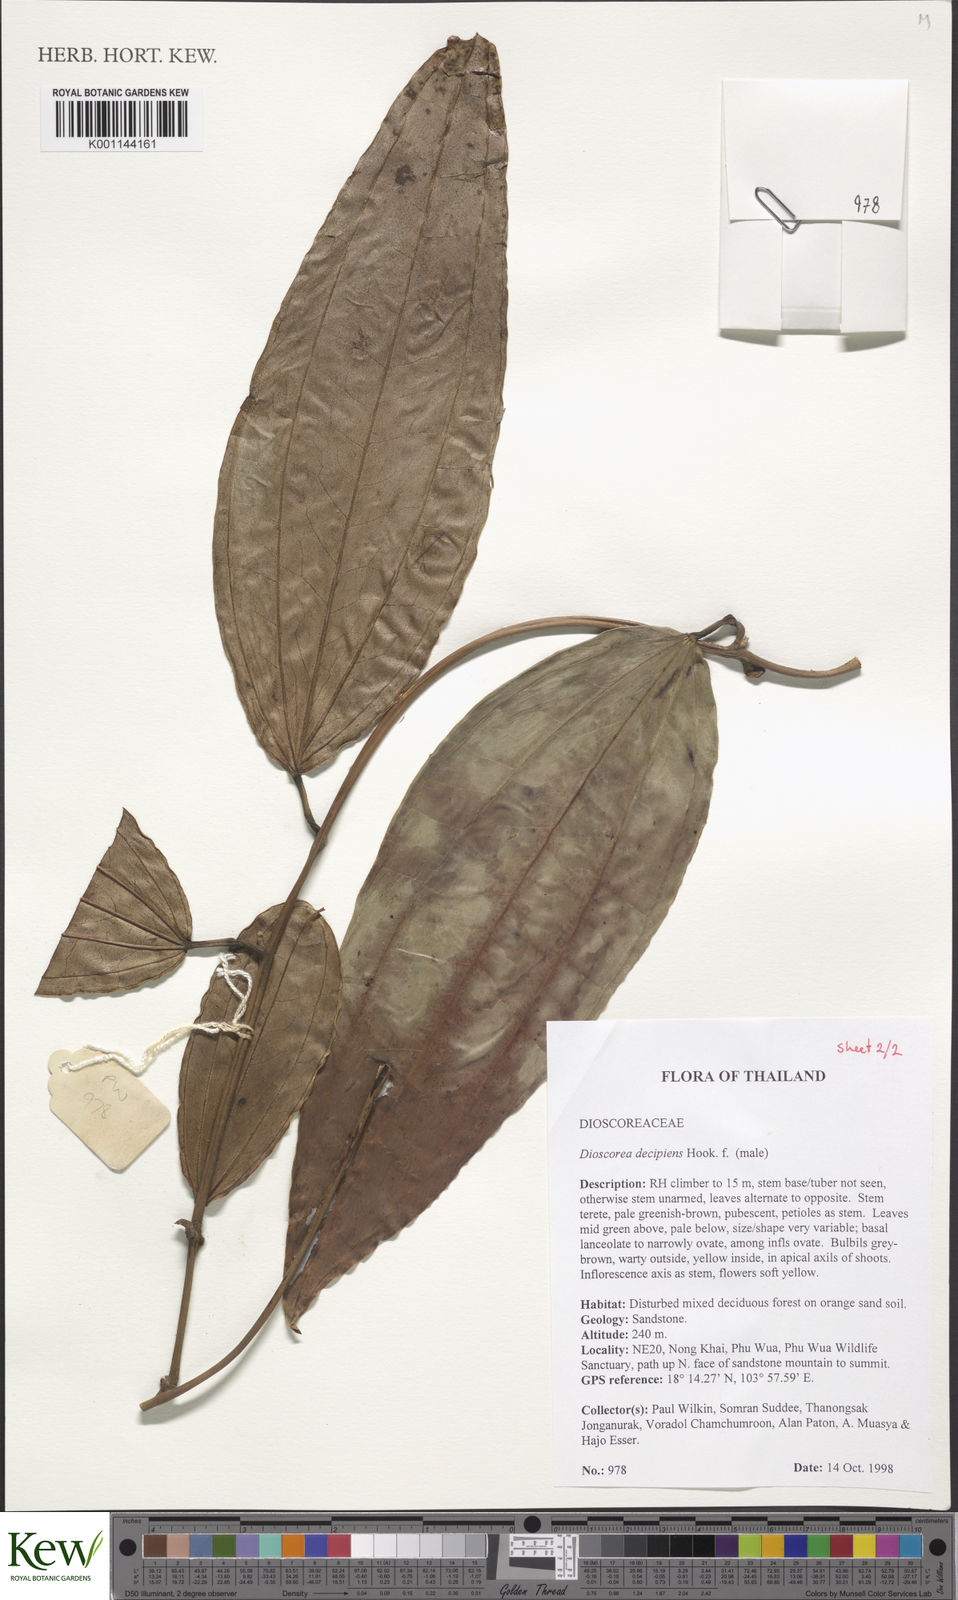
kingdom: Plantae
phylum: Tracheophyta
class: Liliopsida
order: Dioscoreales
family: Dioscoreaceae
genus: Dioscorea
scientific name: Dioscorea decipiens
